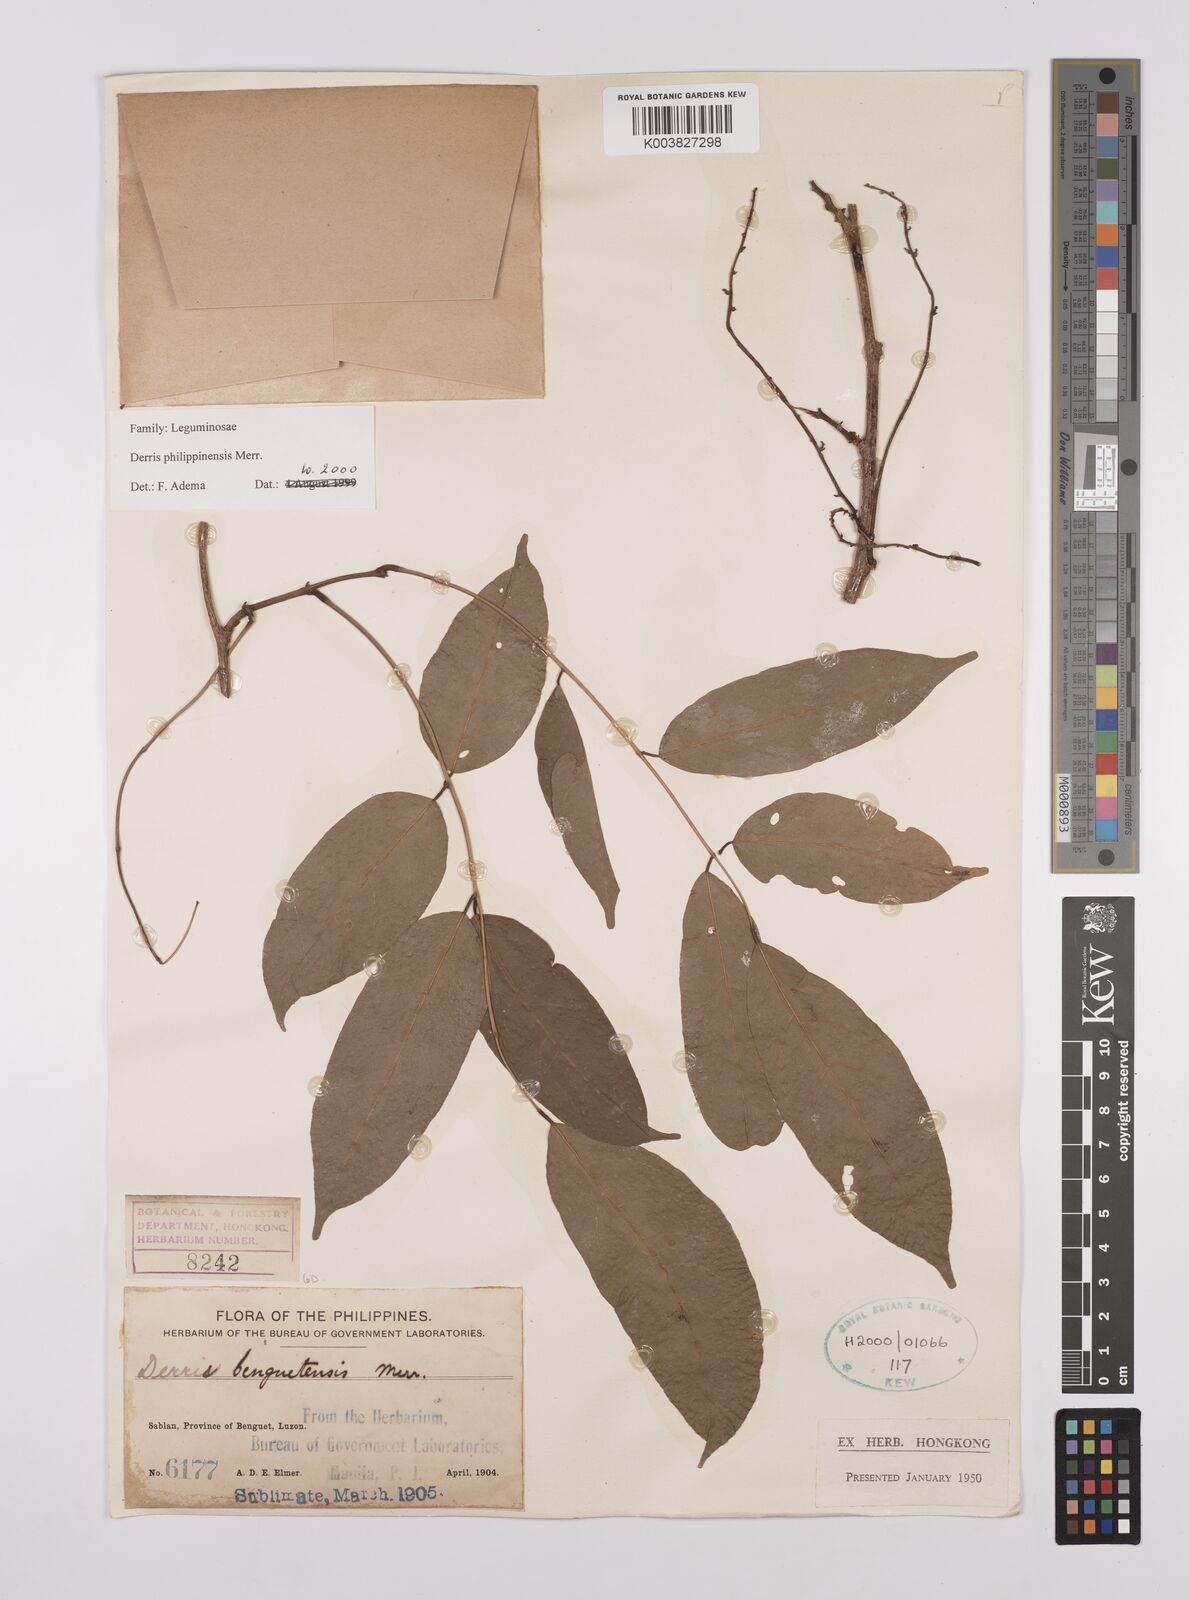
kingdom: Plantae
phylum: Tracheophyta
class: Magnoliopsida
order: Fabales
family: Fabaceae
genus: Brachypterum
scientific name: Brachypterum philippinense
